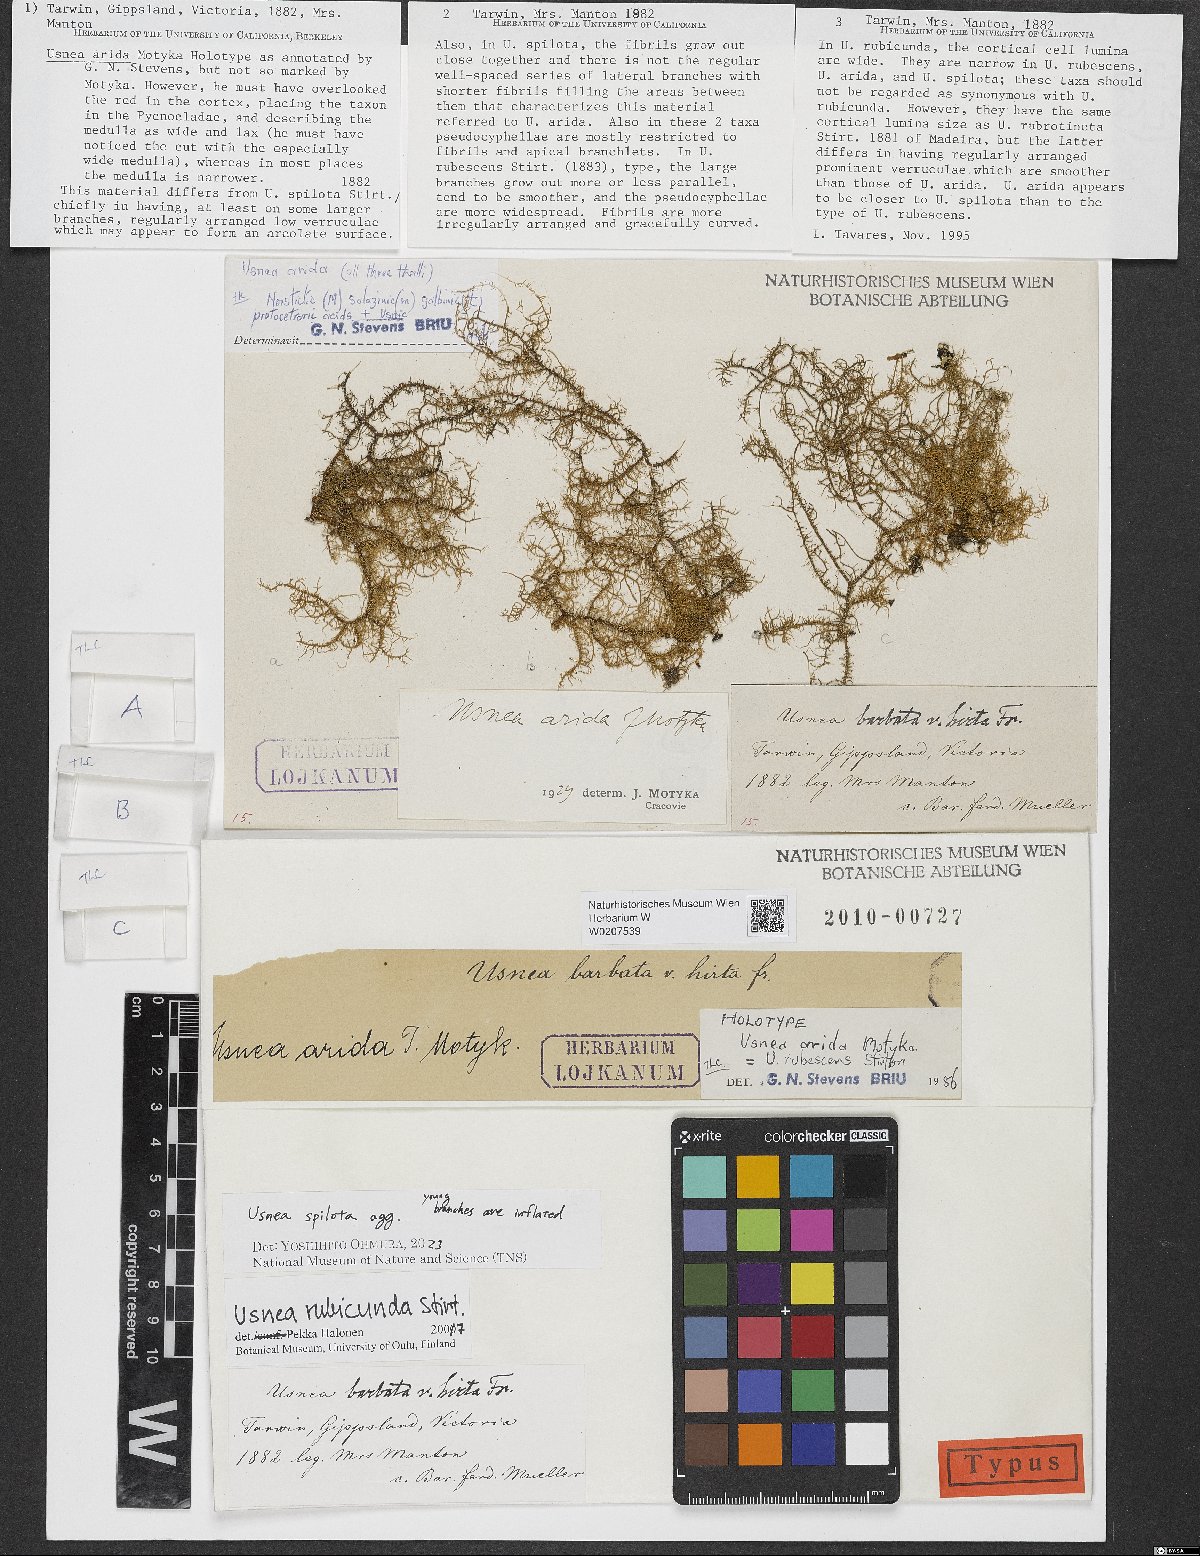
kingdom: Fungi
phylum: Ascomycota
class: Lecanoromycetes
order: Lecanorales
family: Parmeliaceae
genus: Usnea
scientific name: Usnea rubrotincta
